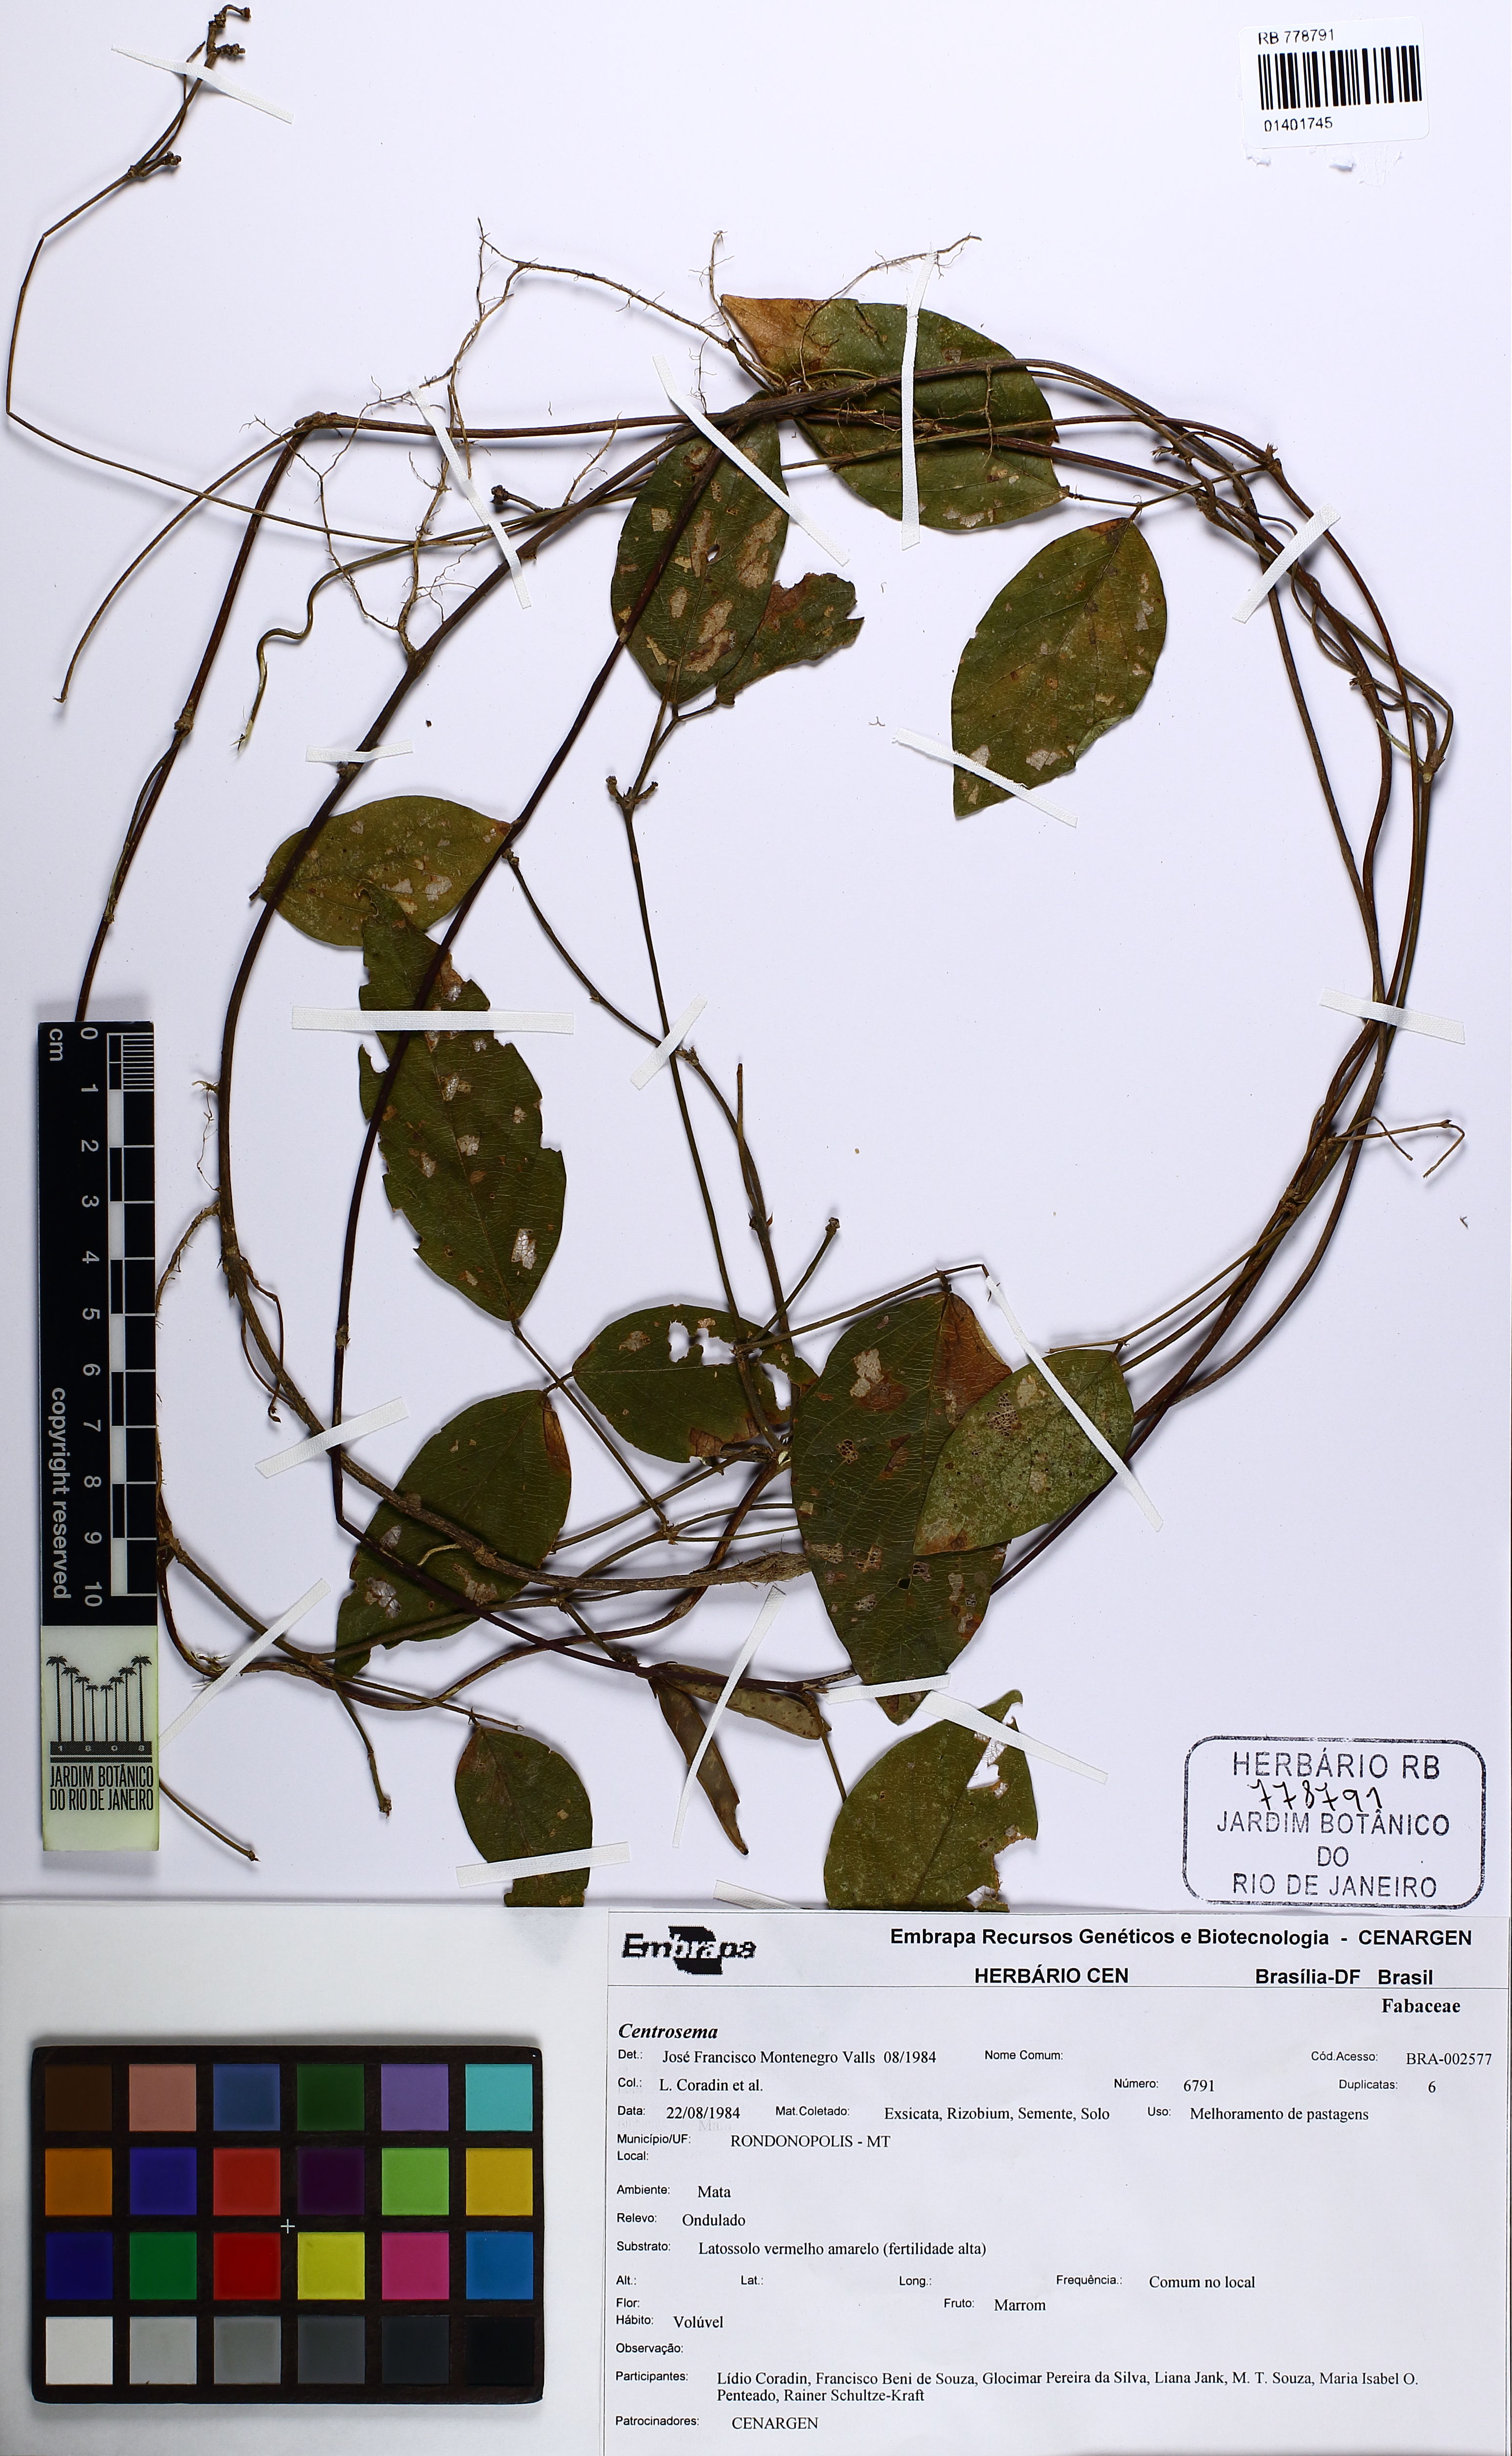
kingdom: Plantae
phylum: Tracheophyta
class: Magnoliopsida
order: Fabales
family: Fabaceae
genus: Centrosema
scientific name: Centrosema
